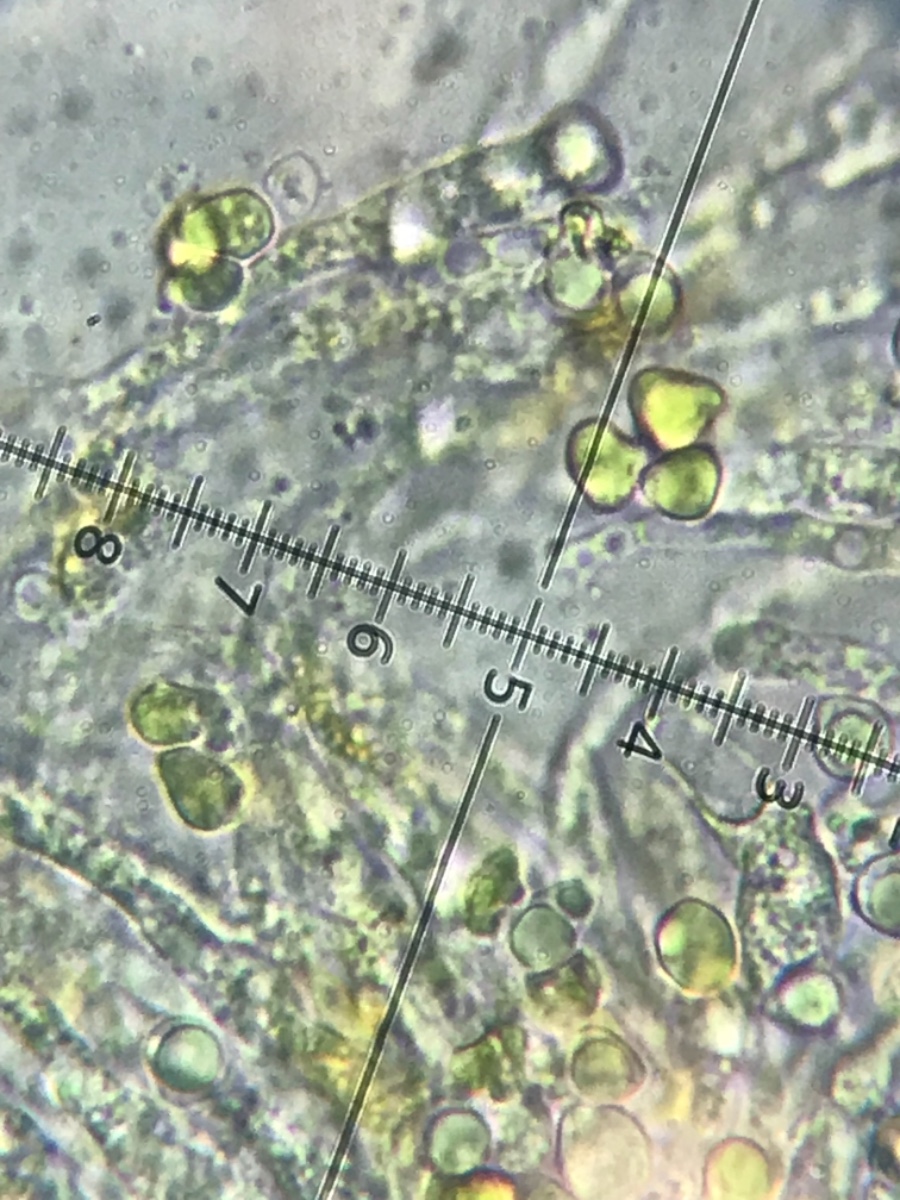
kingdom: Fungi
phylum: Basidiomycota
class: Agaricomycetes
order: Agaricales
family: Clavariaceae
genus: Clavulinopsis
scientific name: Clavulinopsis laeticolor
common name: flamme-køllesvamp
